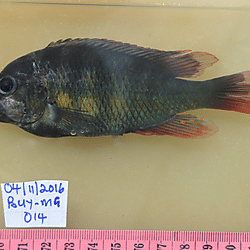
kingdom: Animalia
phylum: Chordata
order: Perciformes
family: Cichlidae
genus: Paralabidochromis
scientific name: Paralabidochromis
